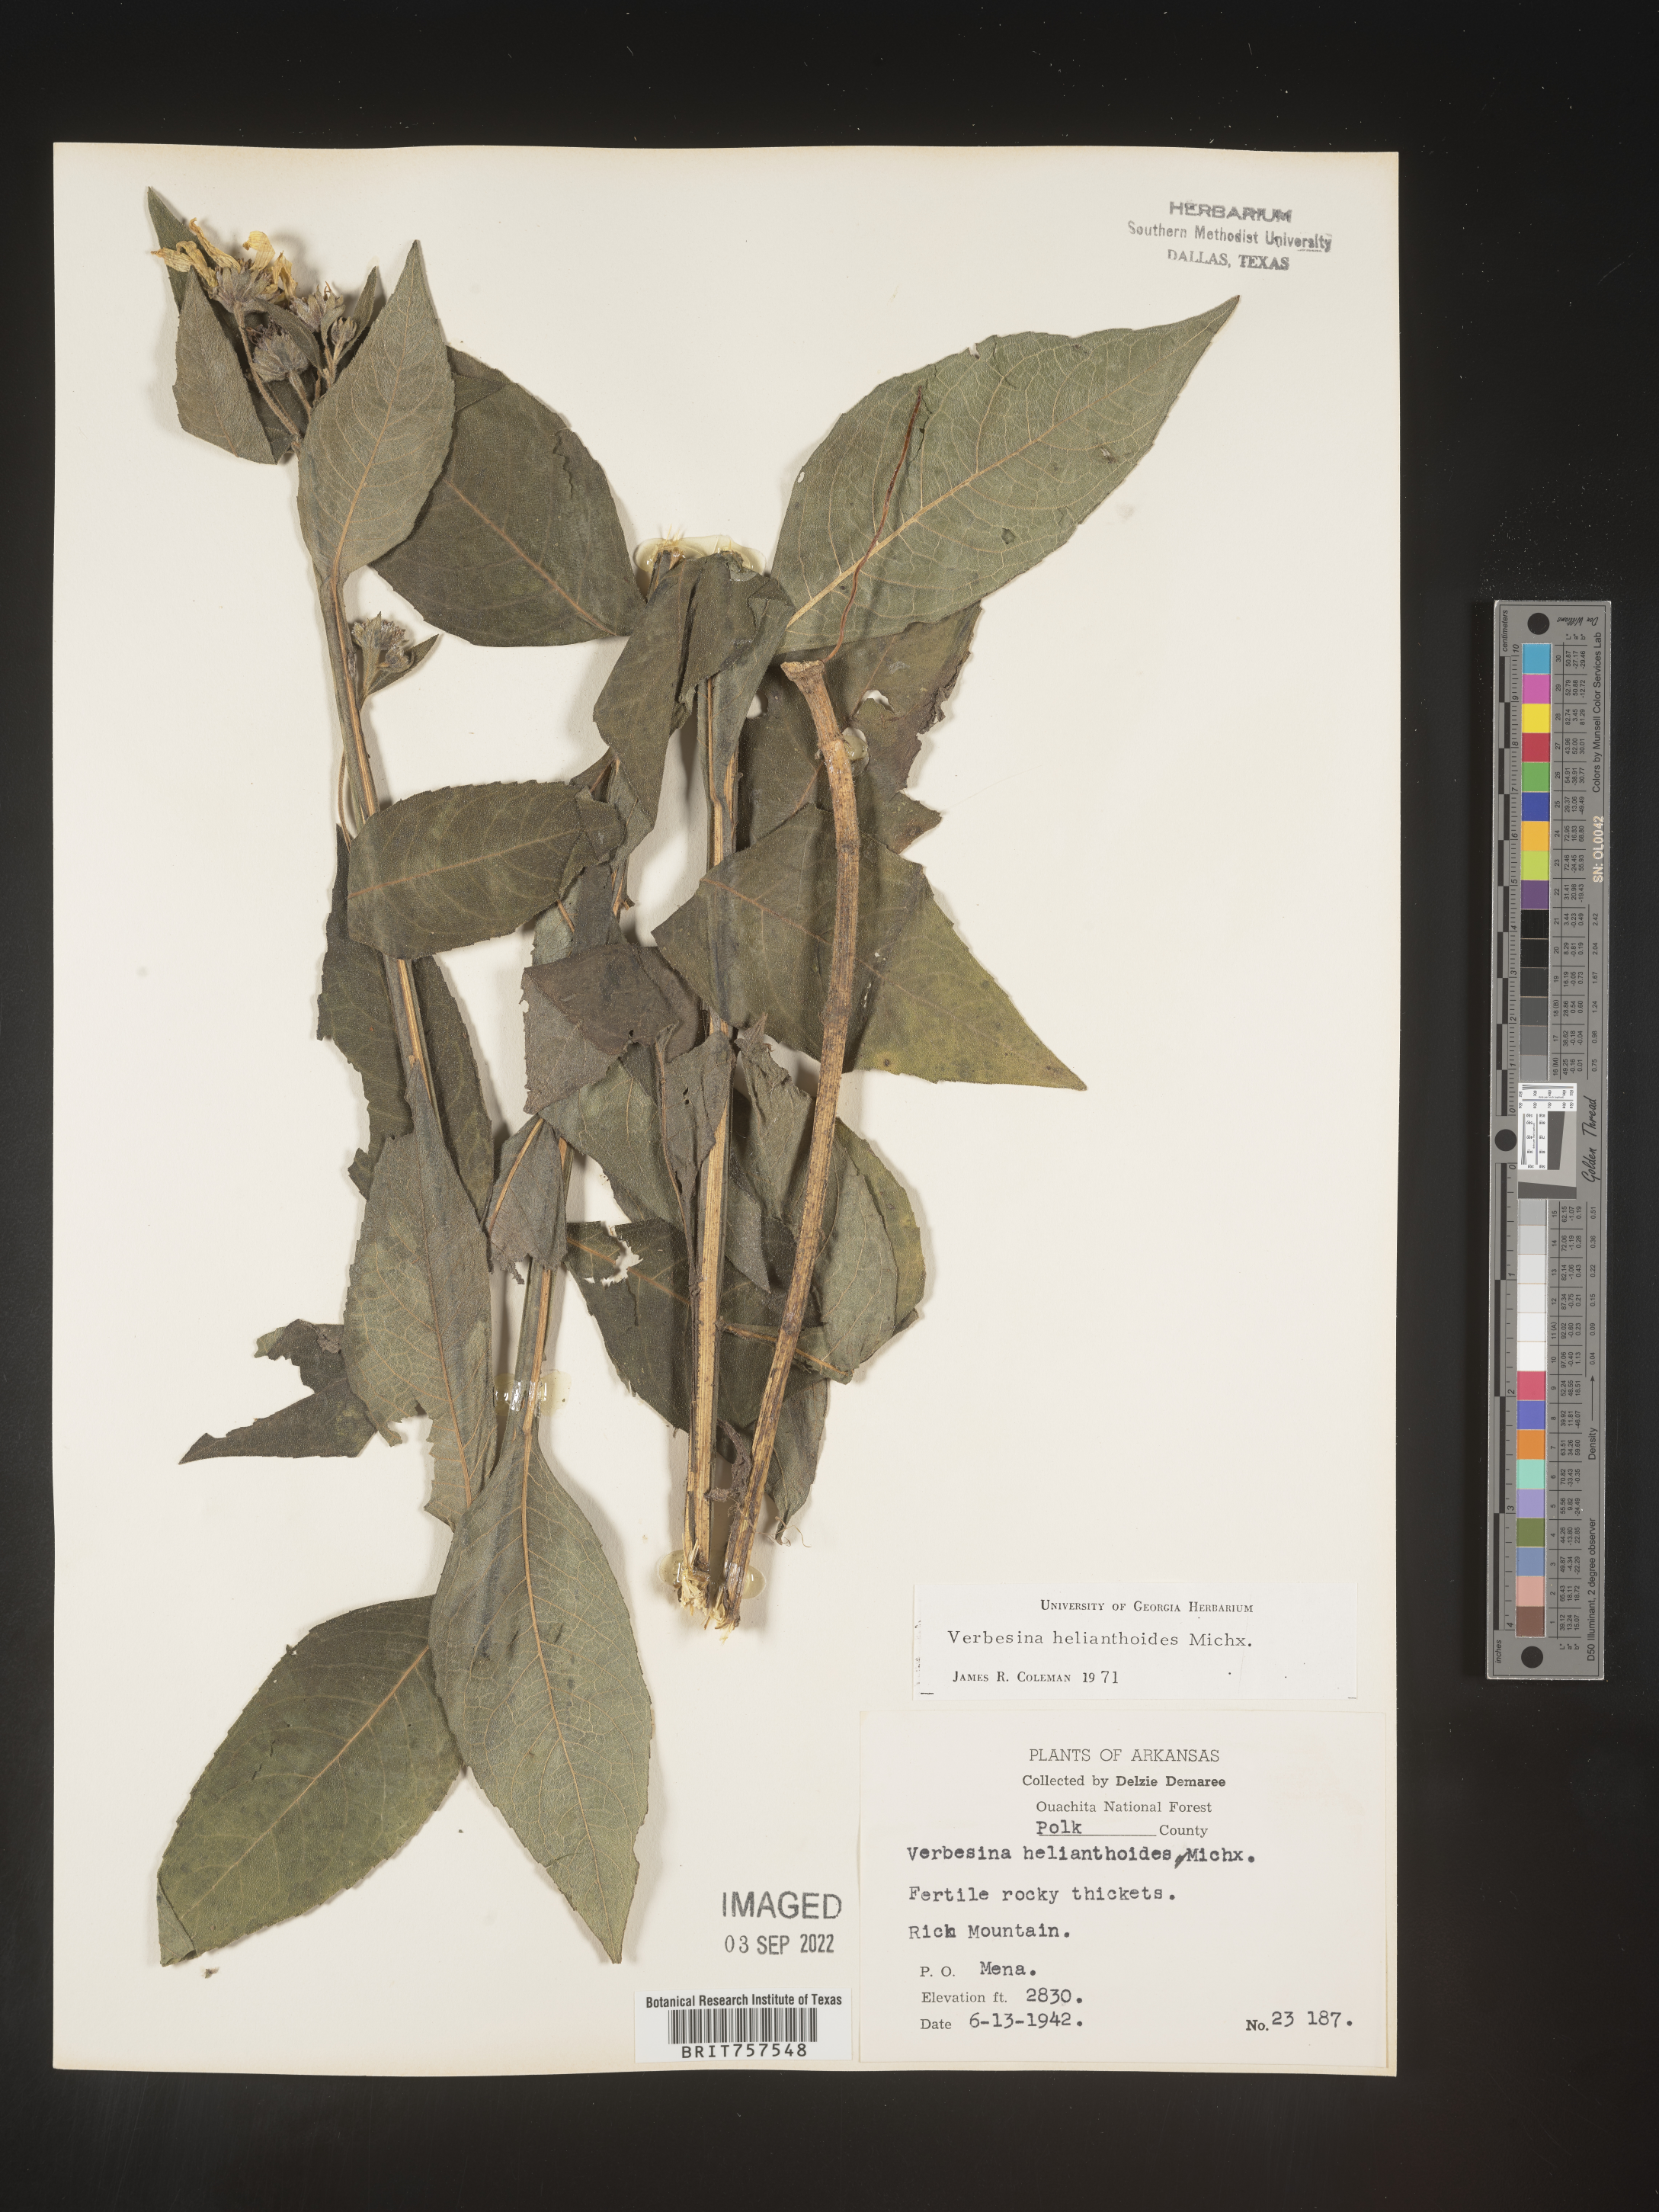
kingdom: Plantae
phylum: Tracheophyta
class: Magnoliopsida
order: Asterales
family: Asteraceae
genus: Verbesina
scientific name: Verbesina helianthoides
